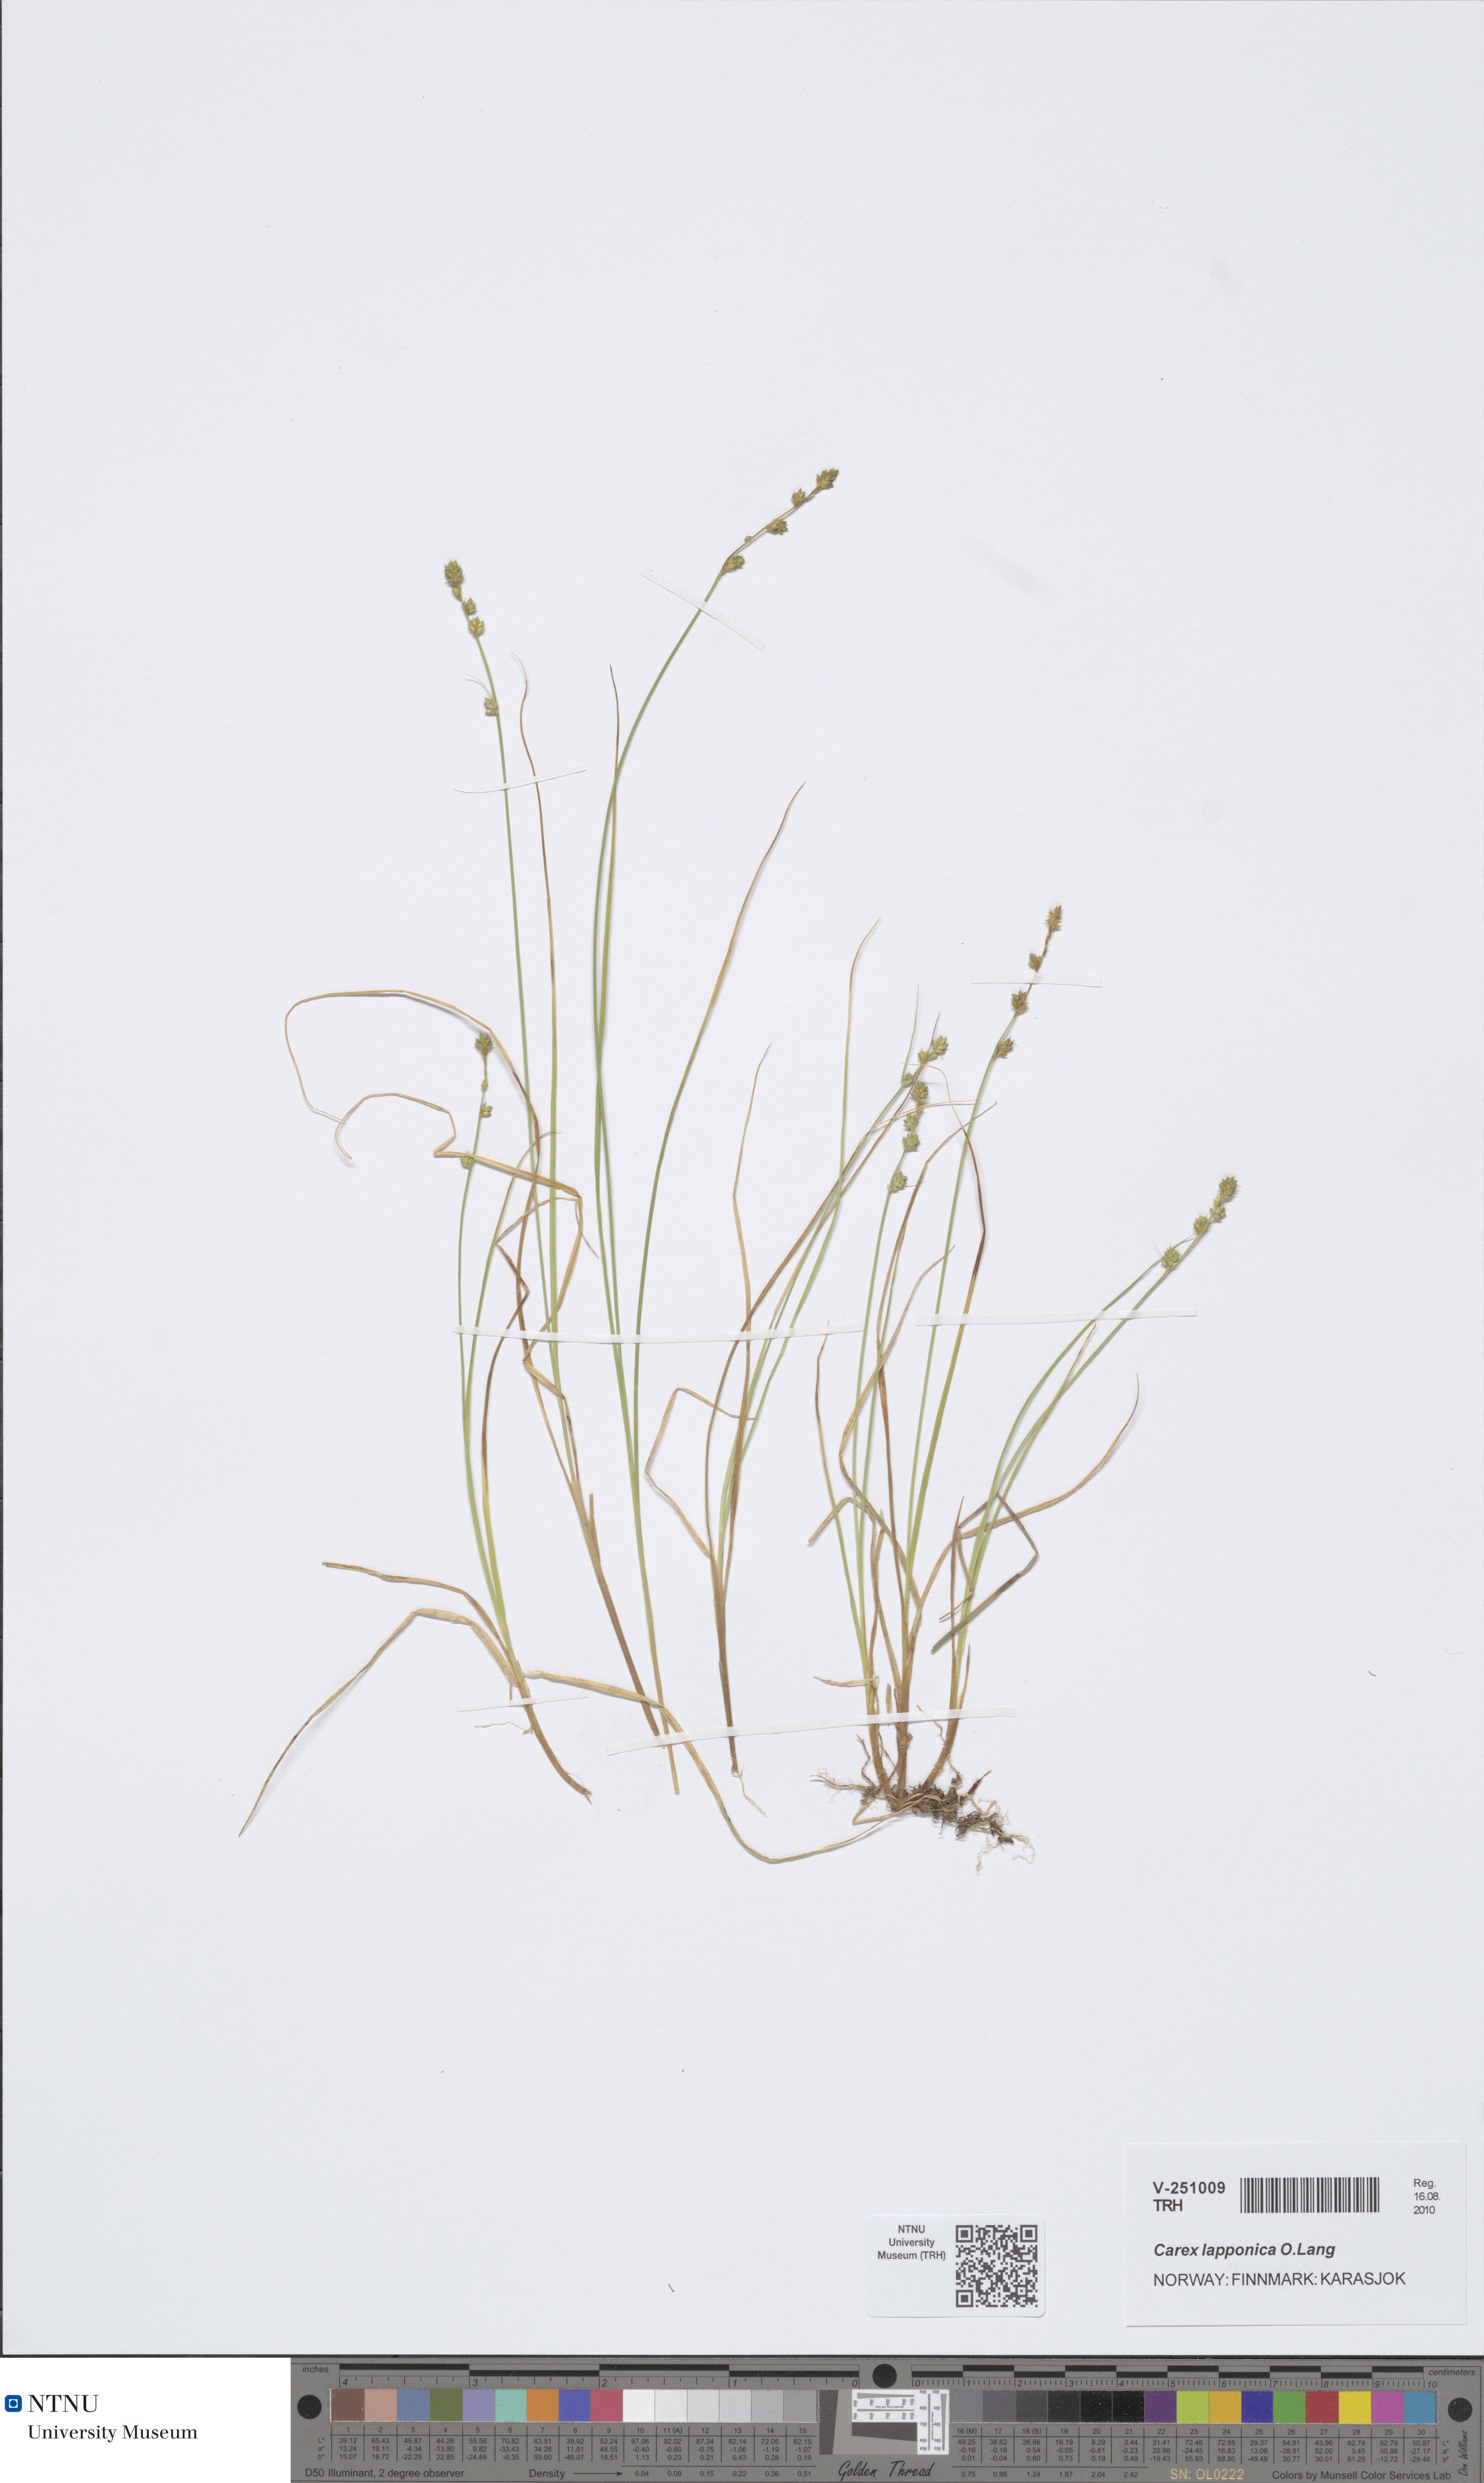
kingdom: Plantae
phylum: Tracheophyta
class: Liliopsida
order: Poales
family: Cyperaceae
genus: Carex
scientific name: Carex lapponica
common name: Lapland sedge
